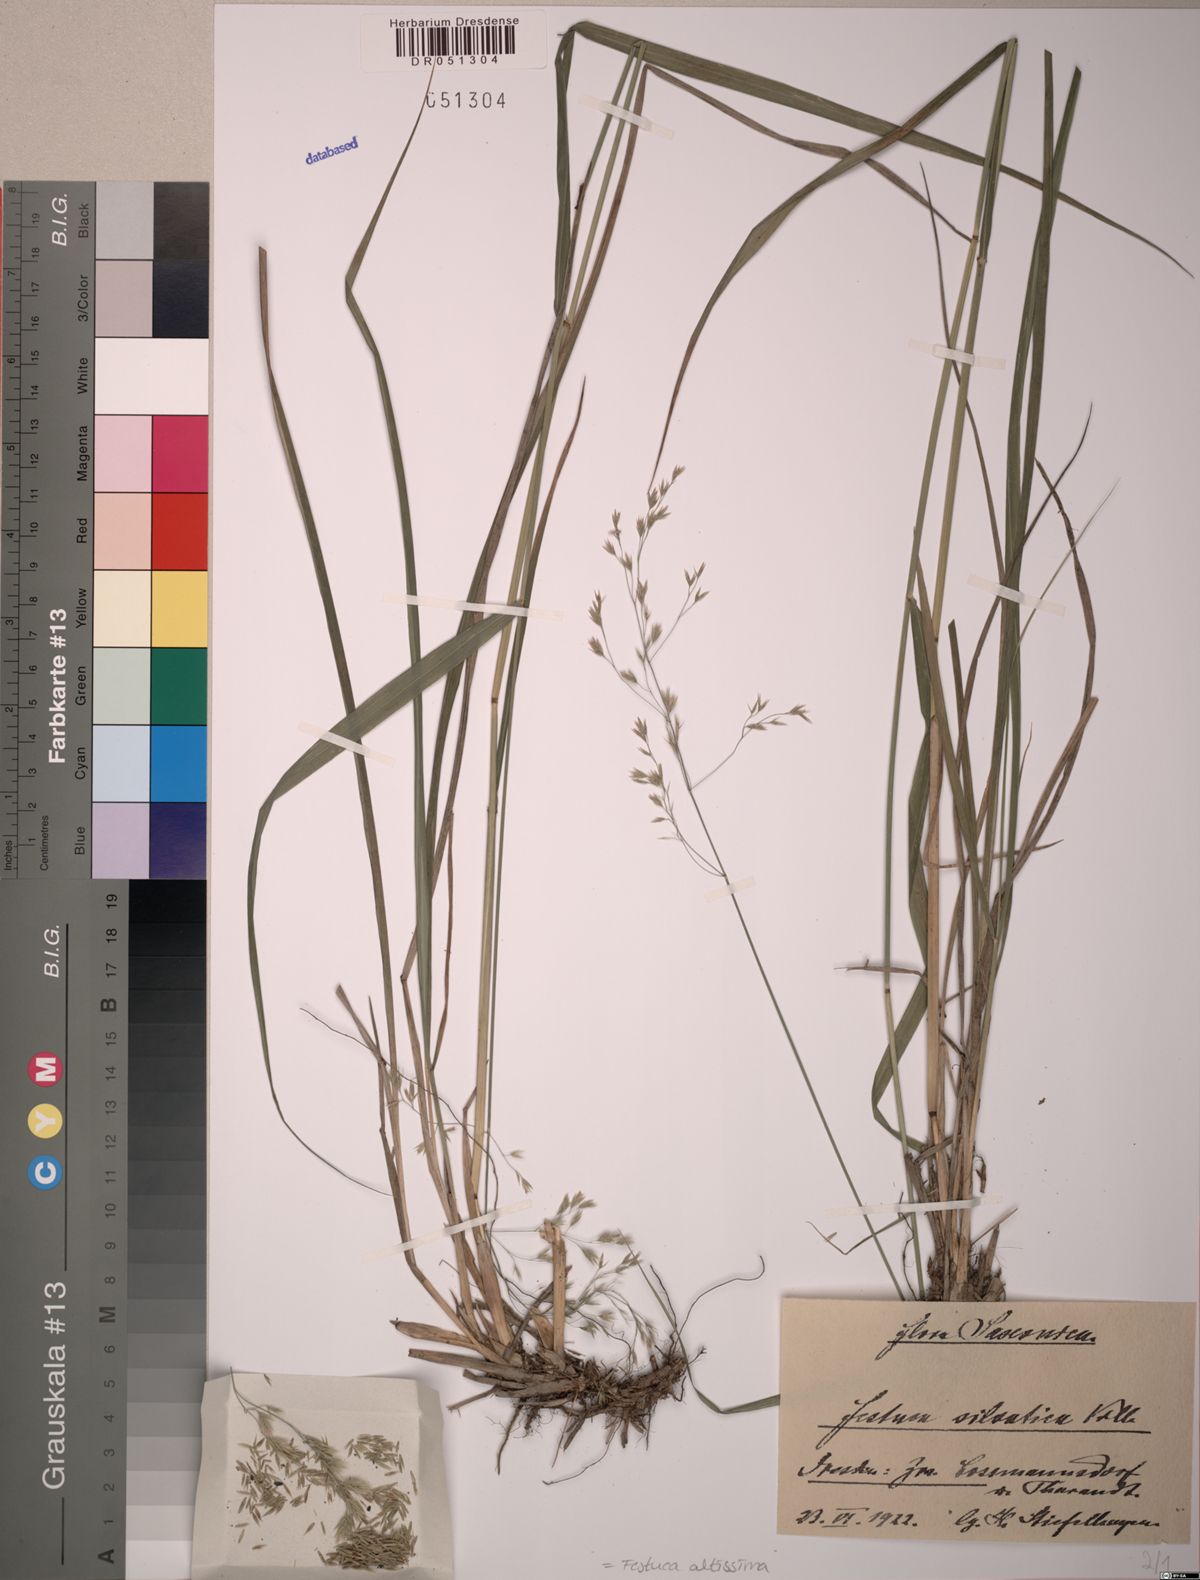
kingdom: Plantae
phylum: Tracheophyta
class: Liliopsida
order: Poales
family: Poaceae
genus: Festuca
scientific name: Festuca altissima
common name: Wood fescue
